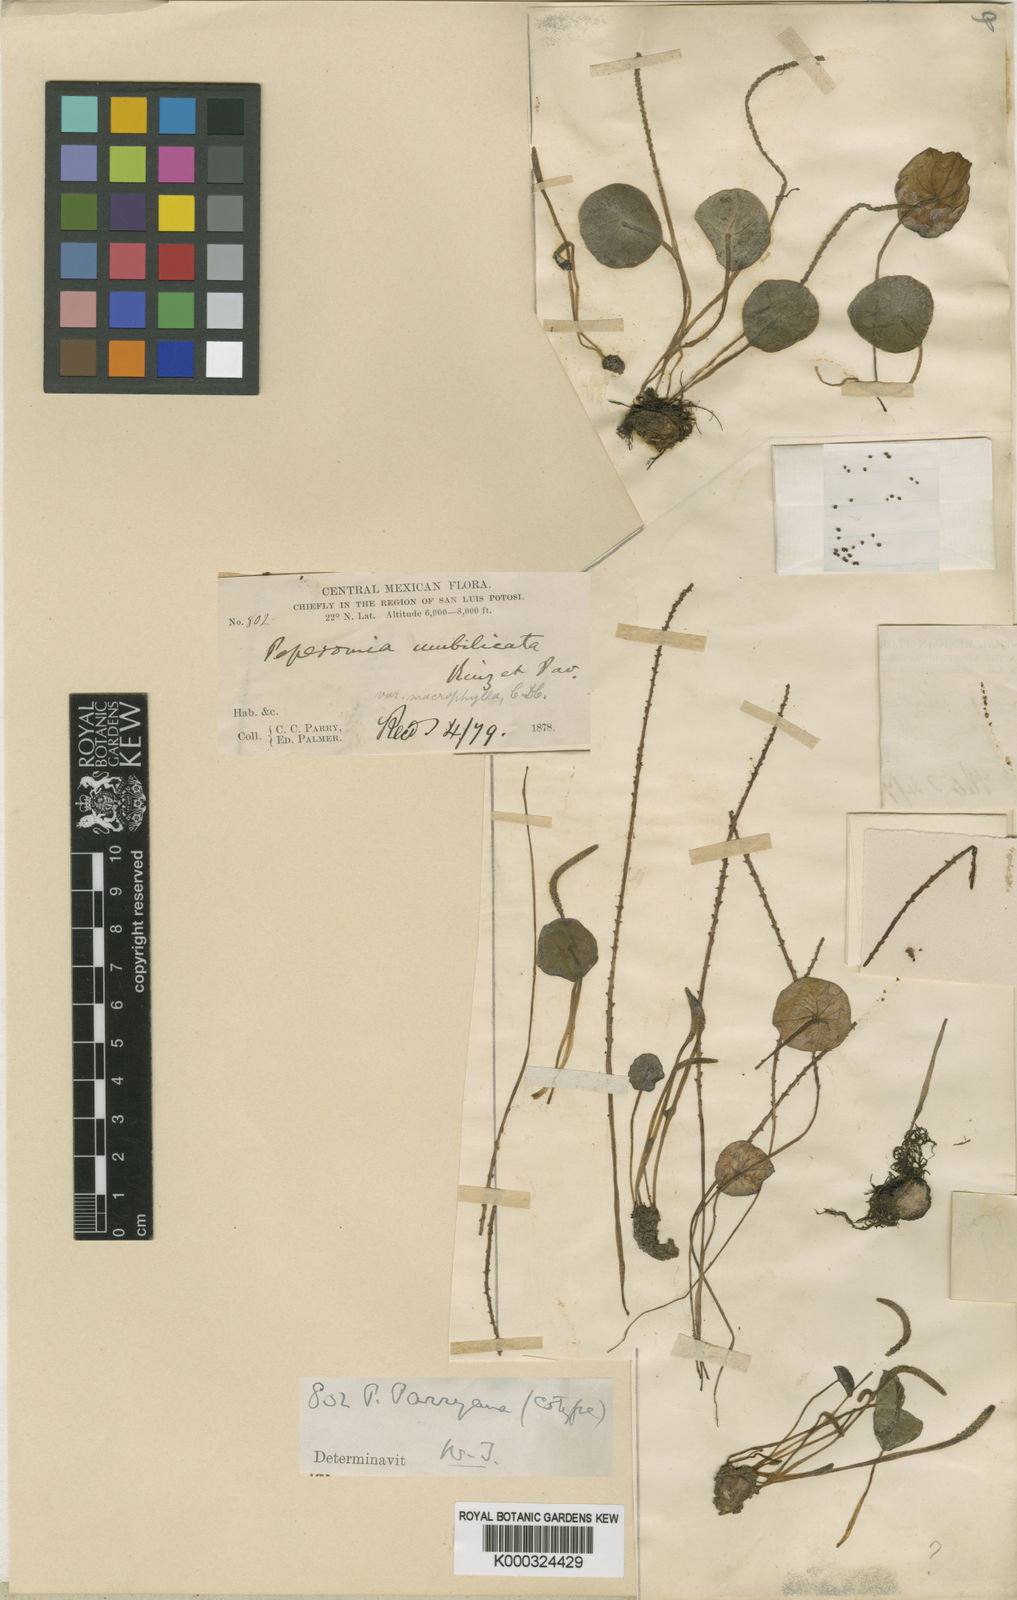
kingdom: Plantae
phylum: Tracheophyta
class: Magnoliopsida
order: Piperales
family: Piperaceae
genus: Peperomia
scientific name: Peperomia campylotropa
